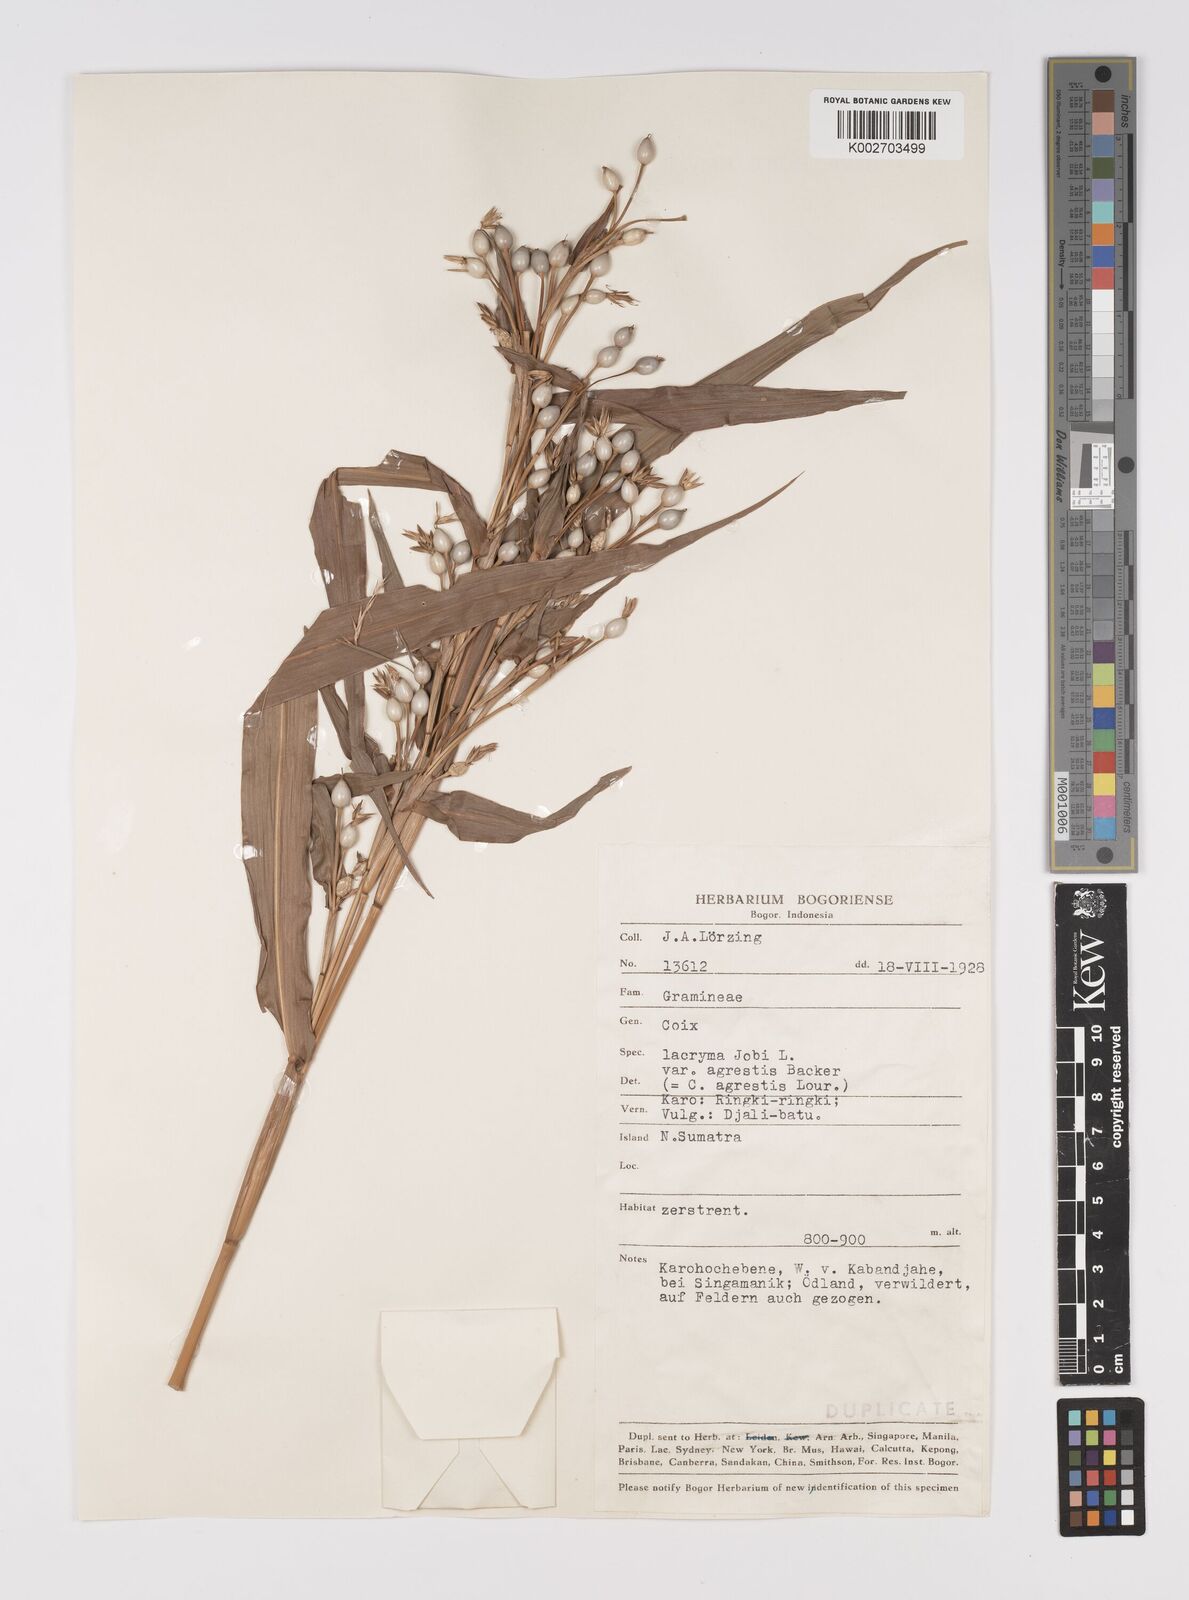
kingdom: Plantae
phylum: Tracheophyta
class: Liliopsida
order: Poales
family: Poaceae
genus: Coix
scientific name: Coix lacryma-jobi
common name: Job's tears
